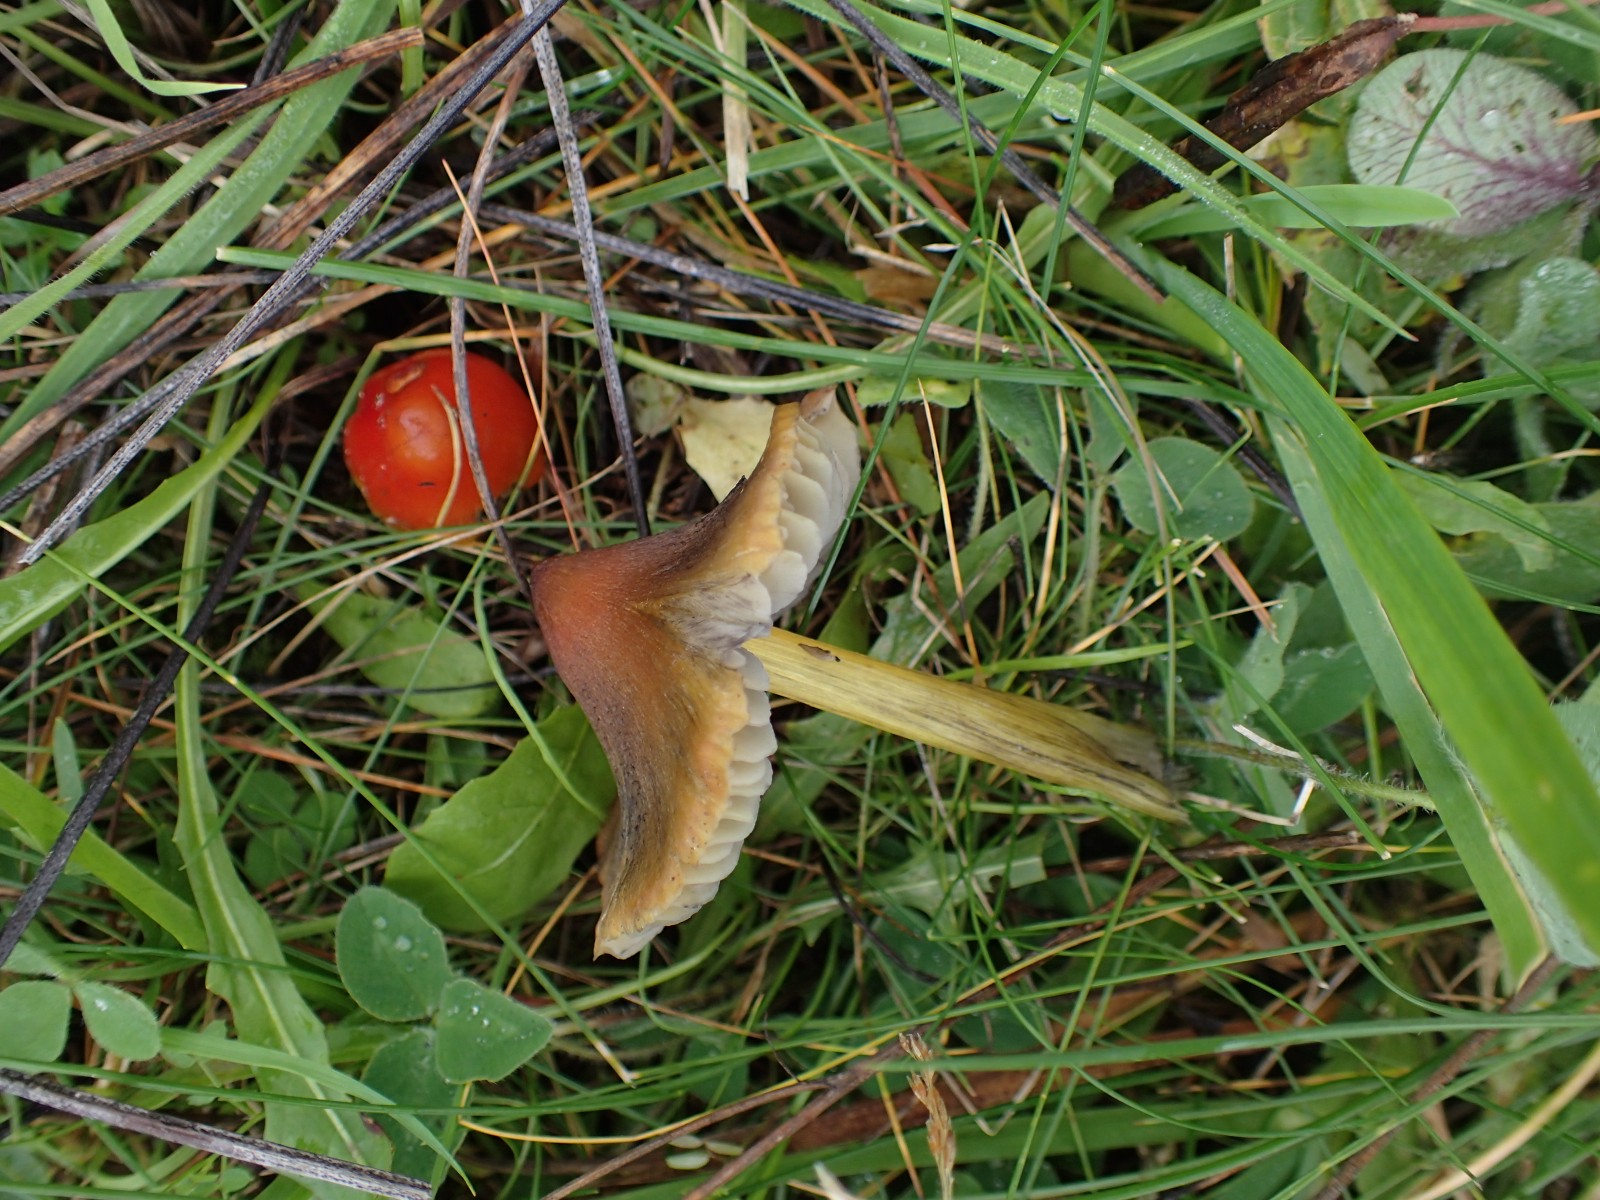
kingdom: Fungi
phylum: Basidiomycota
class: Agaricomycetes
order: Agaricales
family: Hygrophoraceae
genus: Hygrocybe
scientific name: Hygrocybe conica
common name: kegle-vokshat
